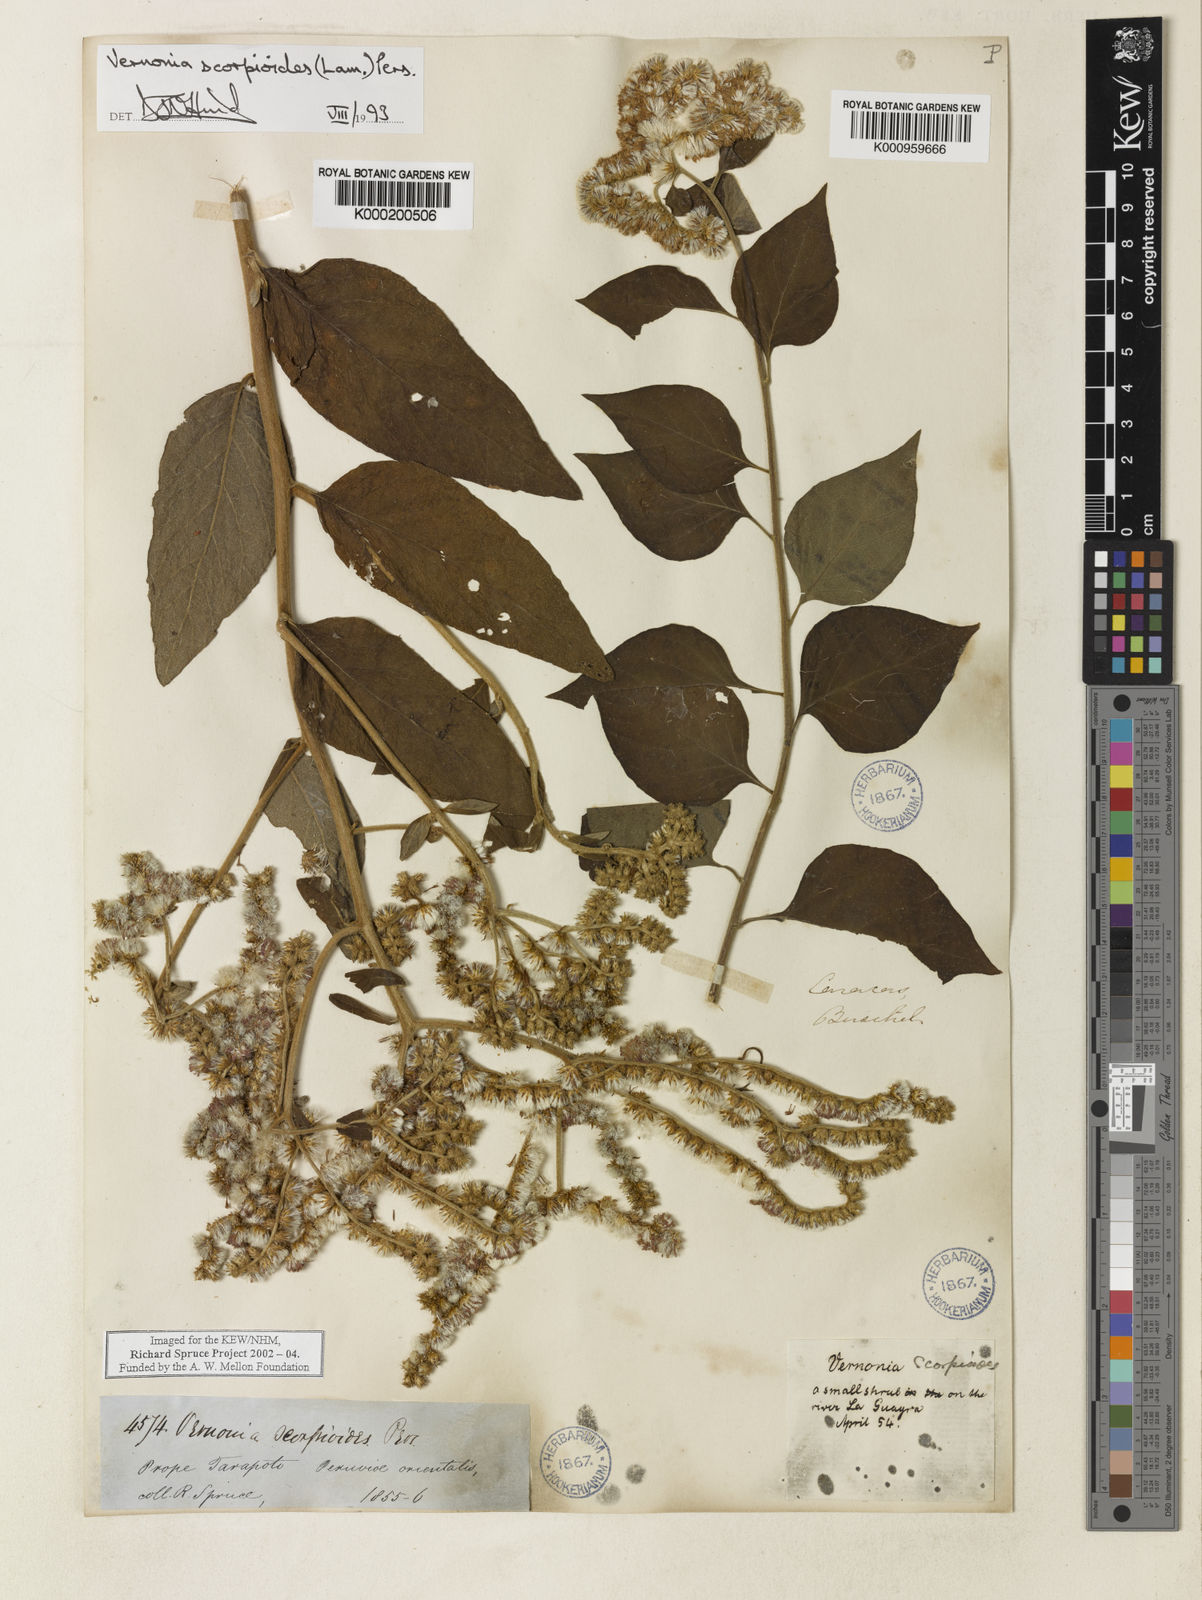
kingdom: Plantae
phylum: Tracheophyta
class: Magnoliopsida
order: Asterales
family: Asteraceae
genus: Cyrtocymura
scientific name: Cyrtocymura scorpioides
